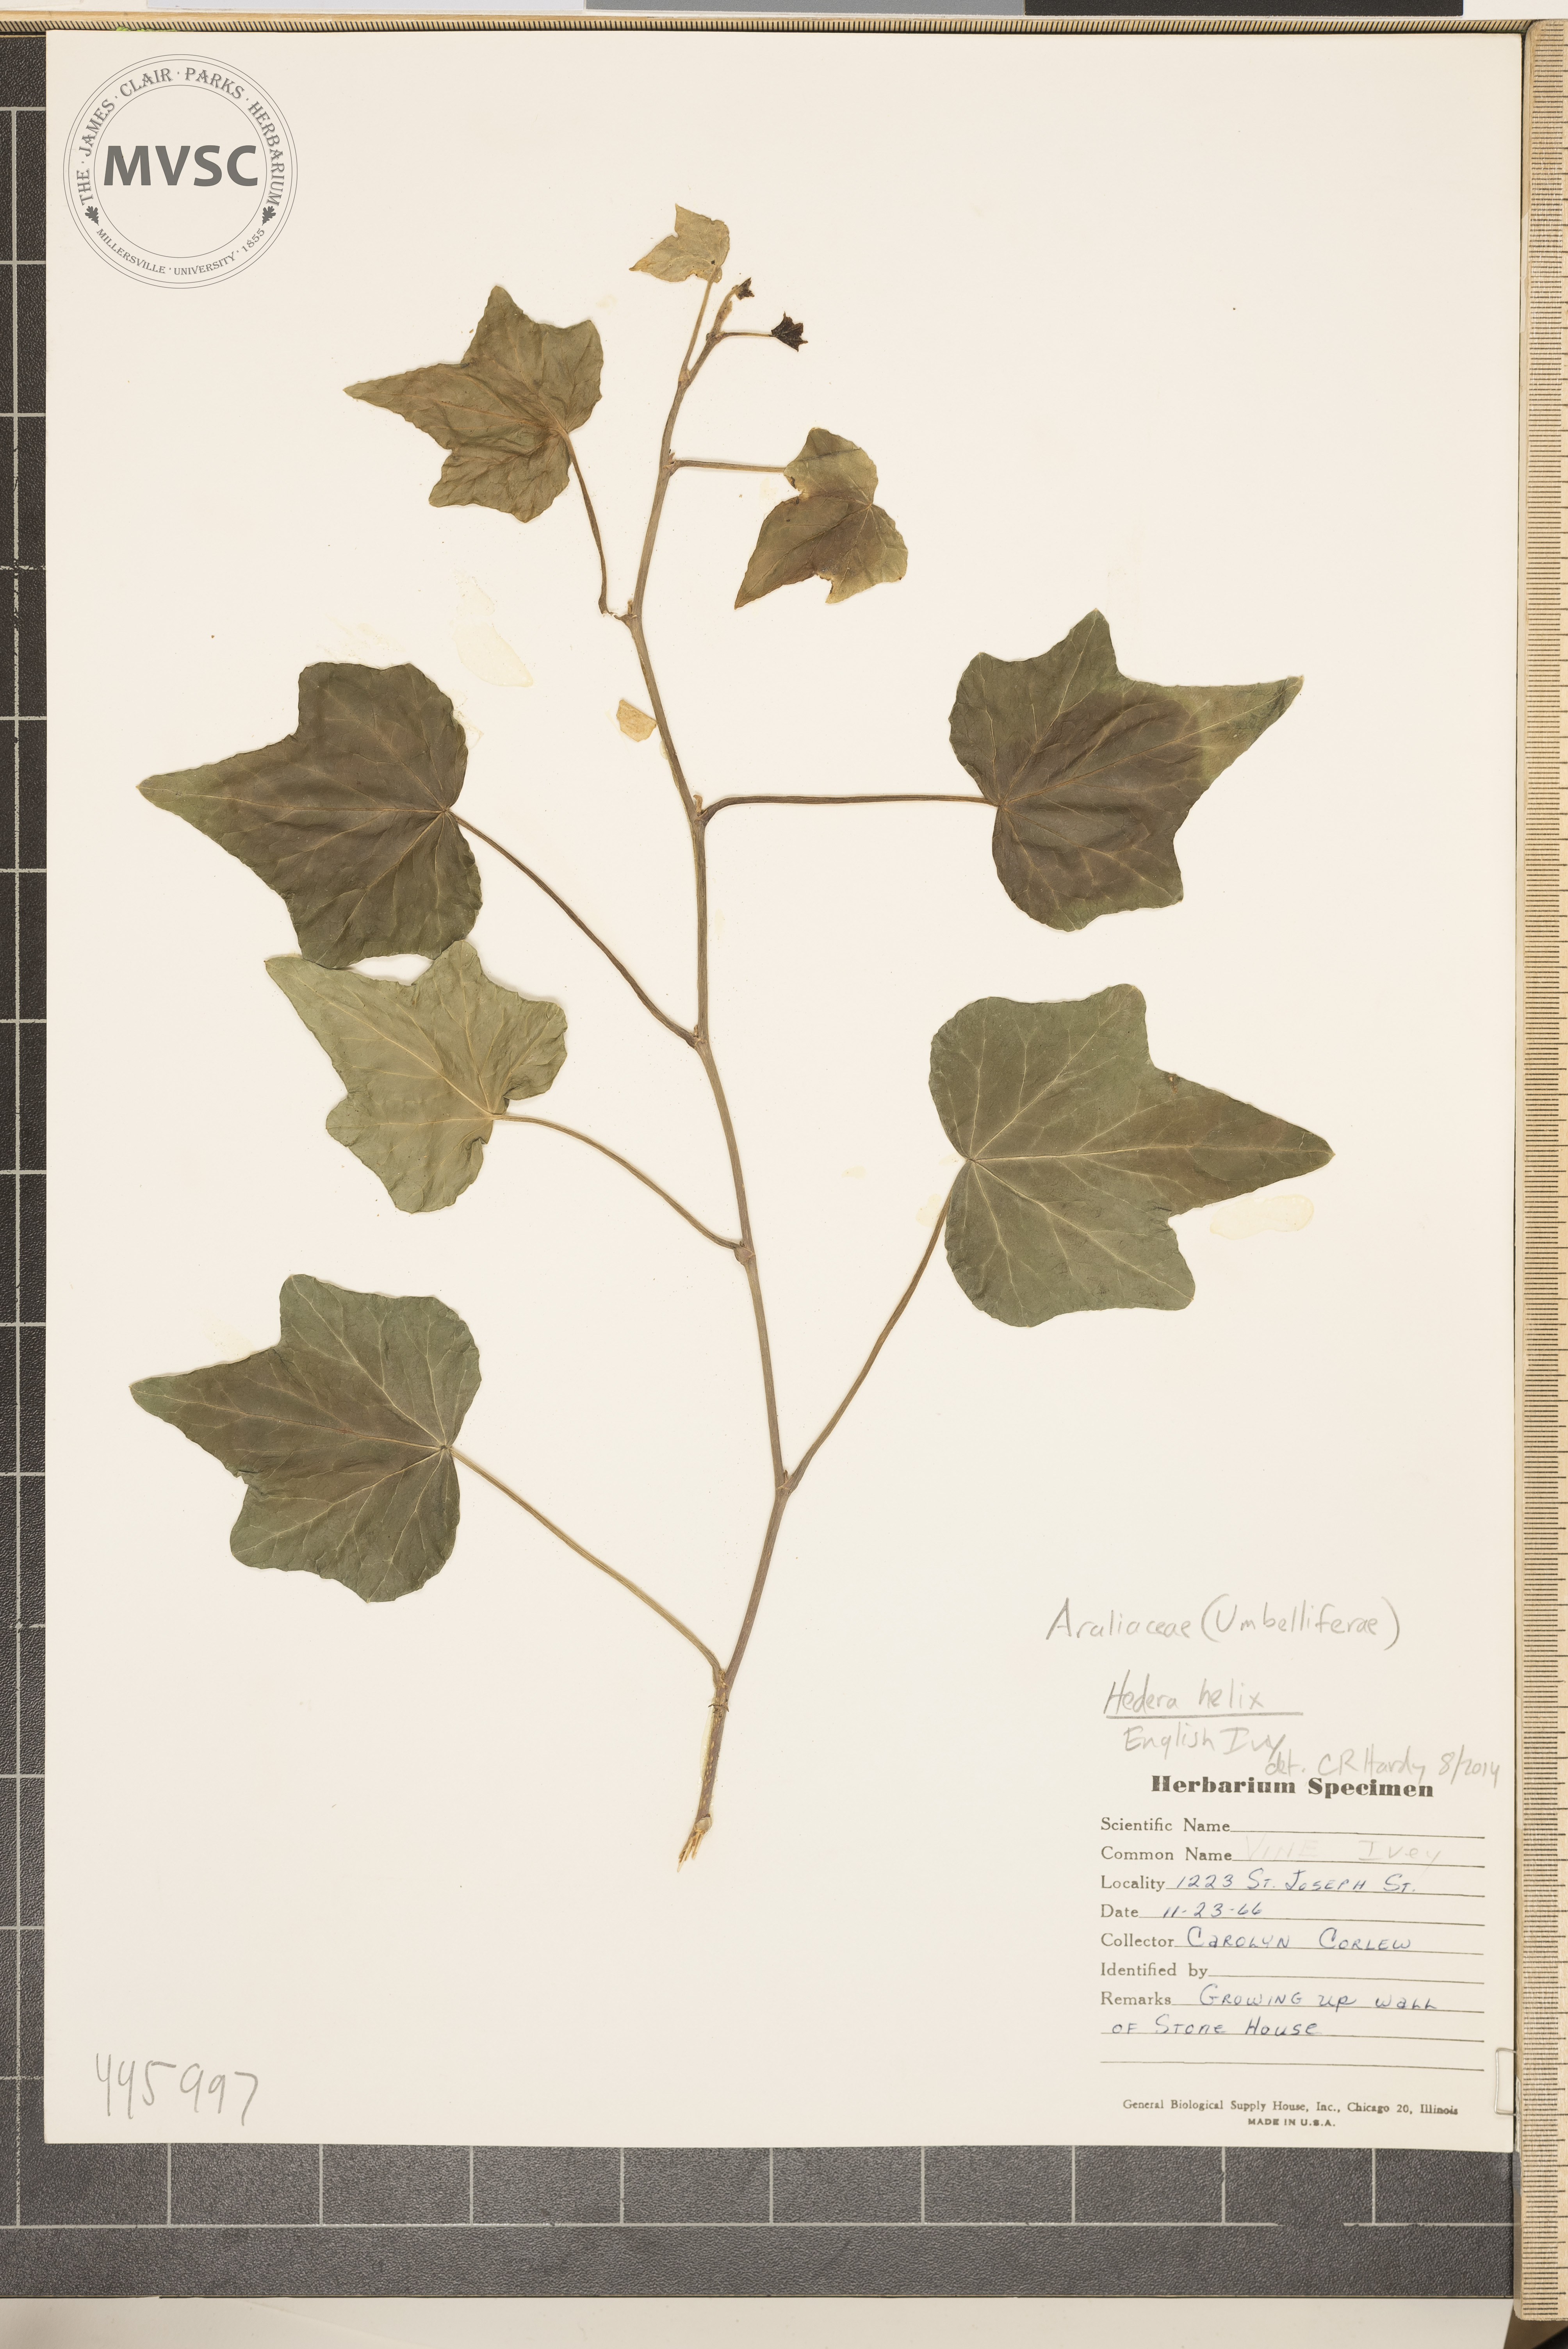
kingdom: Plantae
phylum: Tracheophyta
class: Magnoliopsida
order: Apiales
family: Araliaceae
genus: Hedera
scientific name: Hedera helix
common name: Ivy
